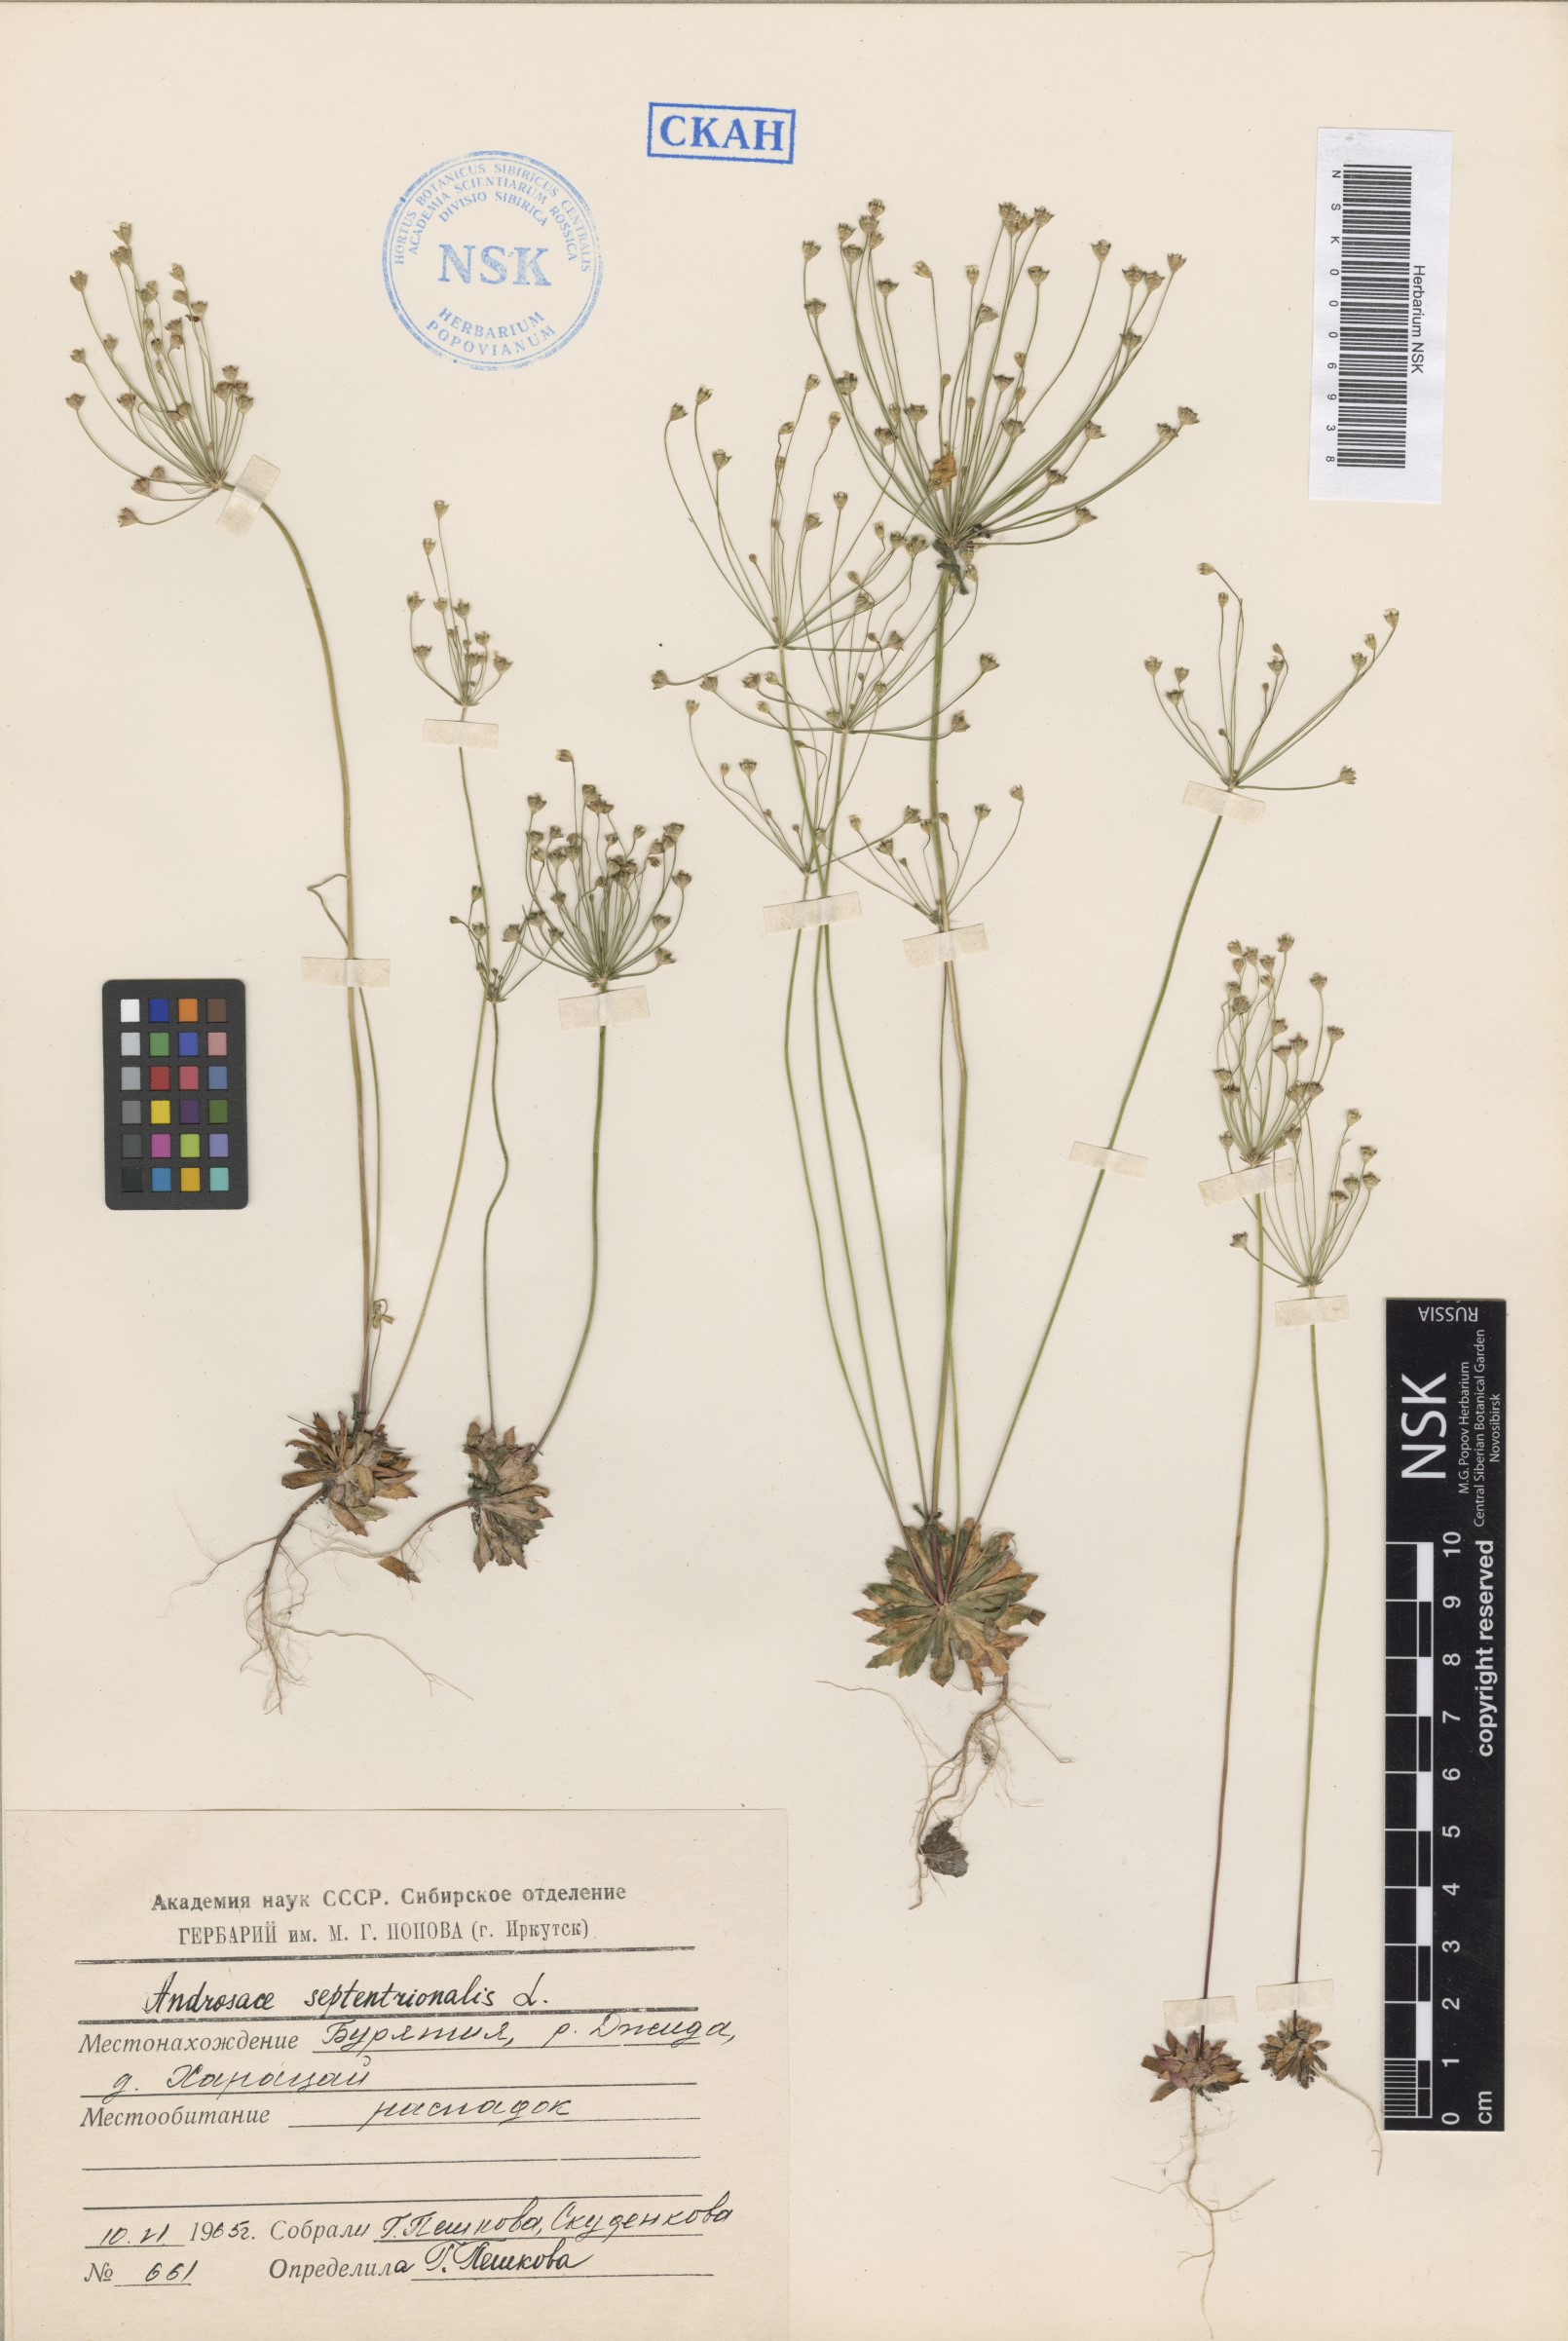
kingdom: Plantae
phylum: Tracheophyta
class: Magnoliopsida
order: Ericales
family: Primulaceae
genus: Androsace
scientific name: Androsace septentrionalis
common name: Hairy northern fairy-candelabra
